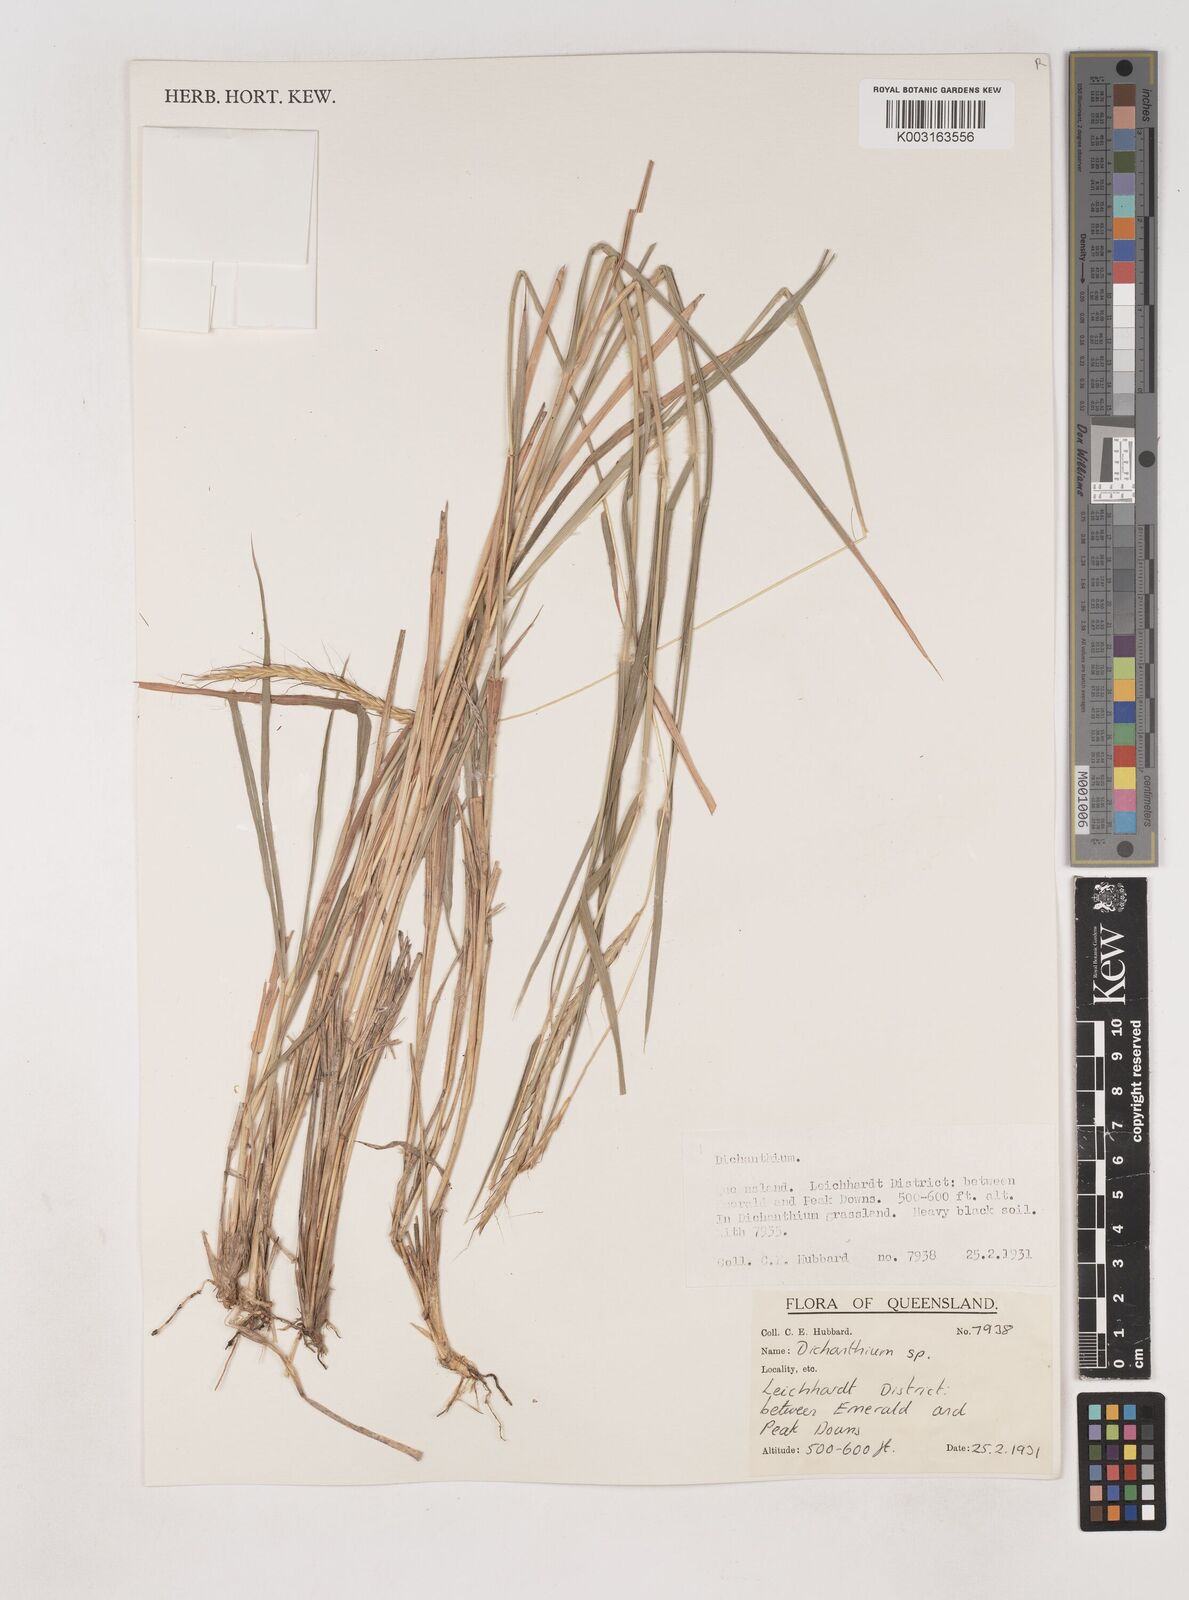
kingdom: Plantae
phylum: Tracheophyta
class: Liliopsida
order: Poales
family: Poaceae
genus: Dichanthium
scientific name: Dichanthium
